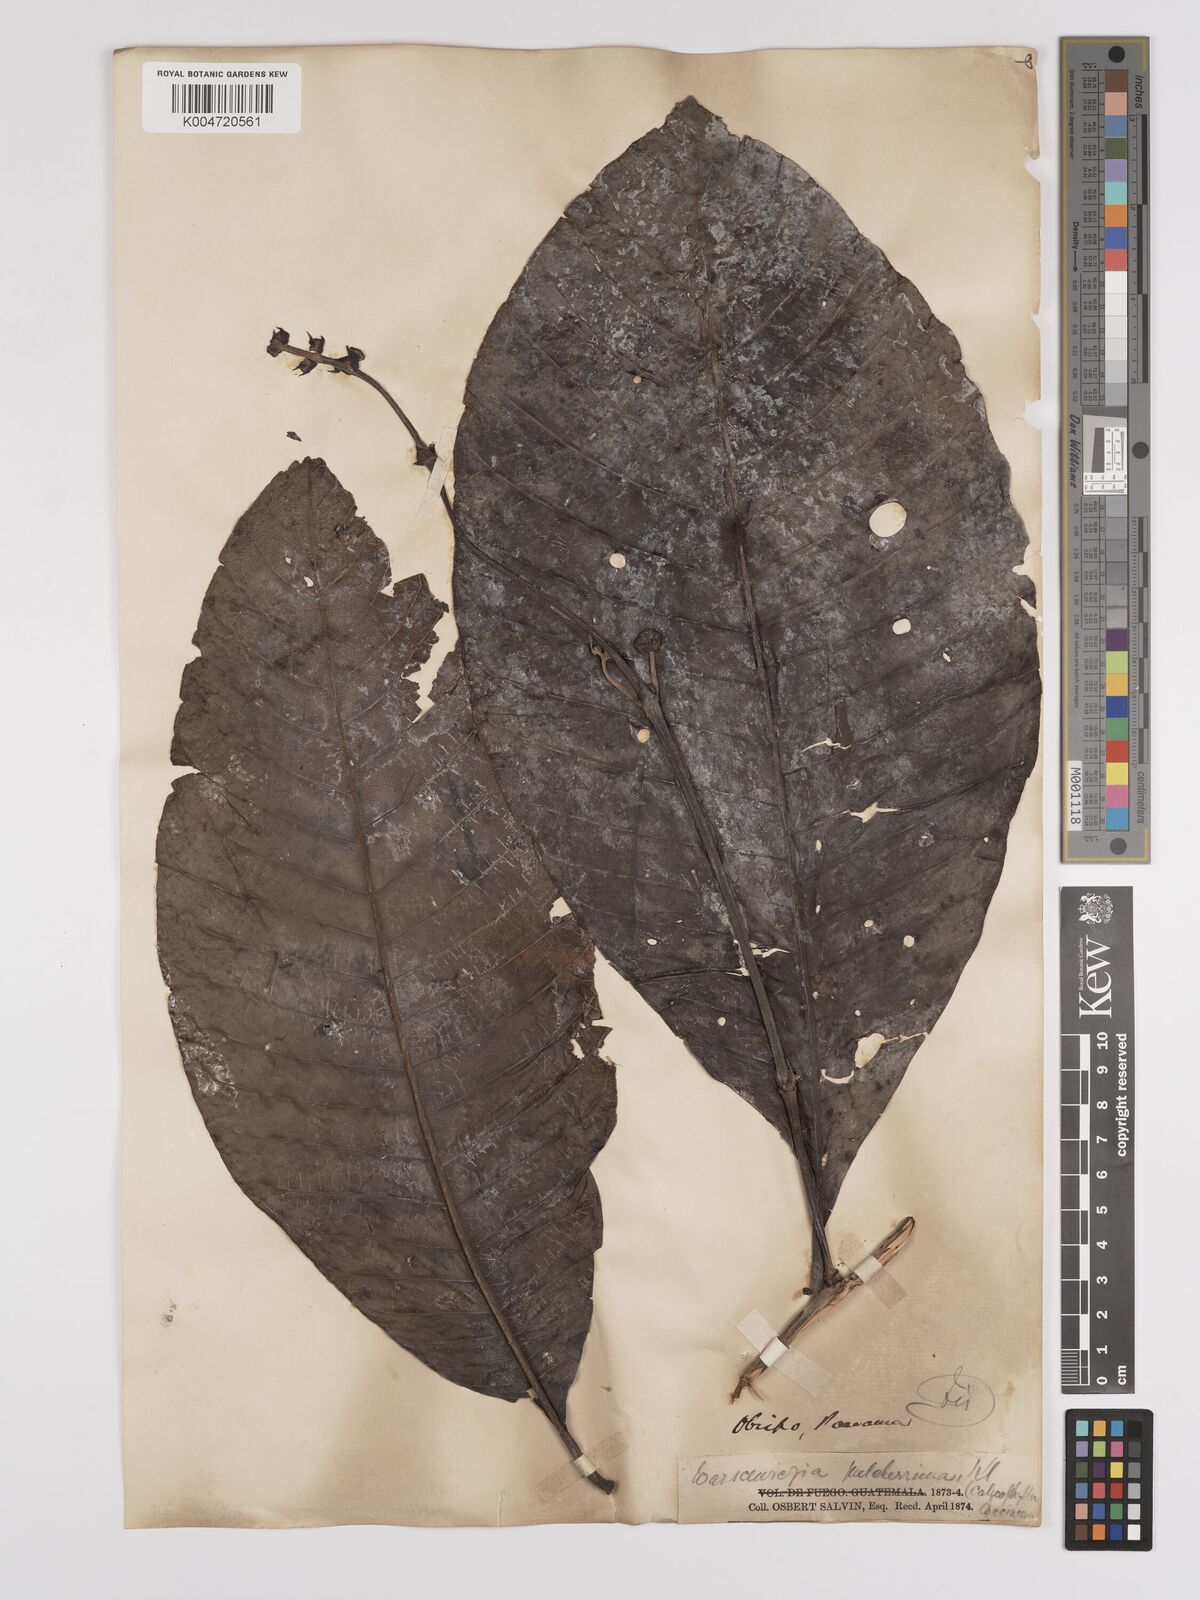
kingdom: Plantae
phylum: Tracheophyta
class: Magnoliopsida
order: Gentianales
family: Rubiaceae
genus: Warszewiczia
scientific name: Warszewiczia coccinea
